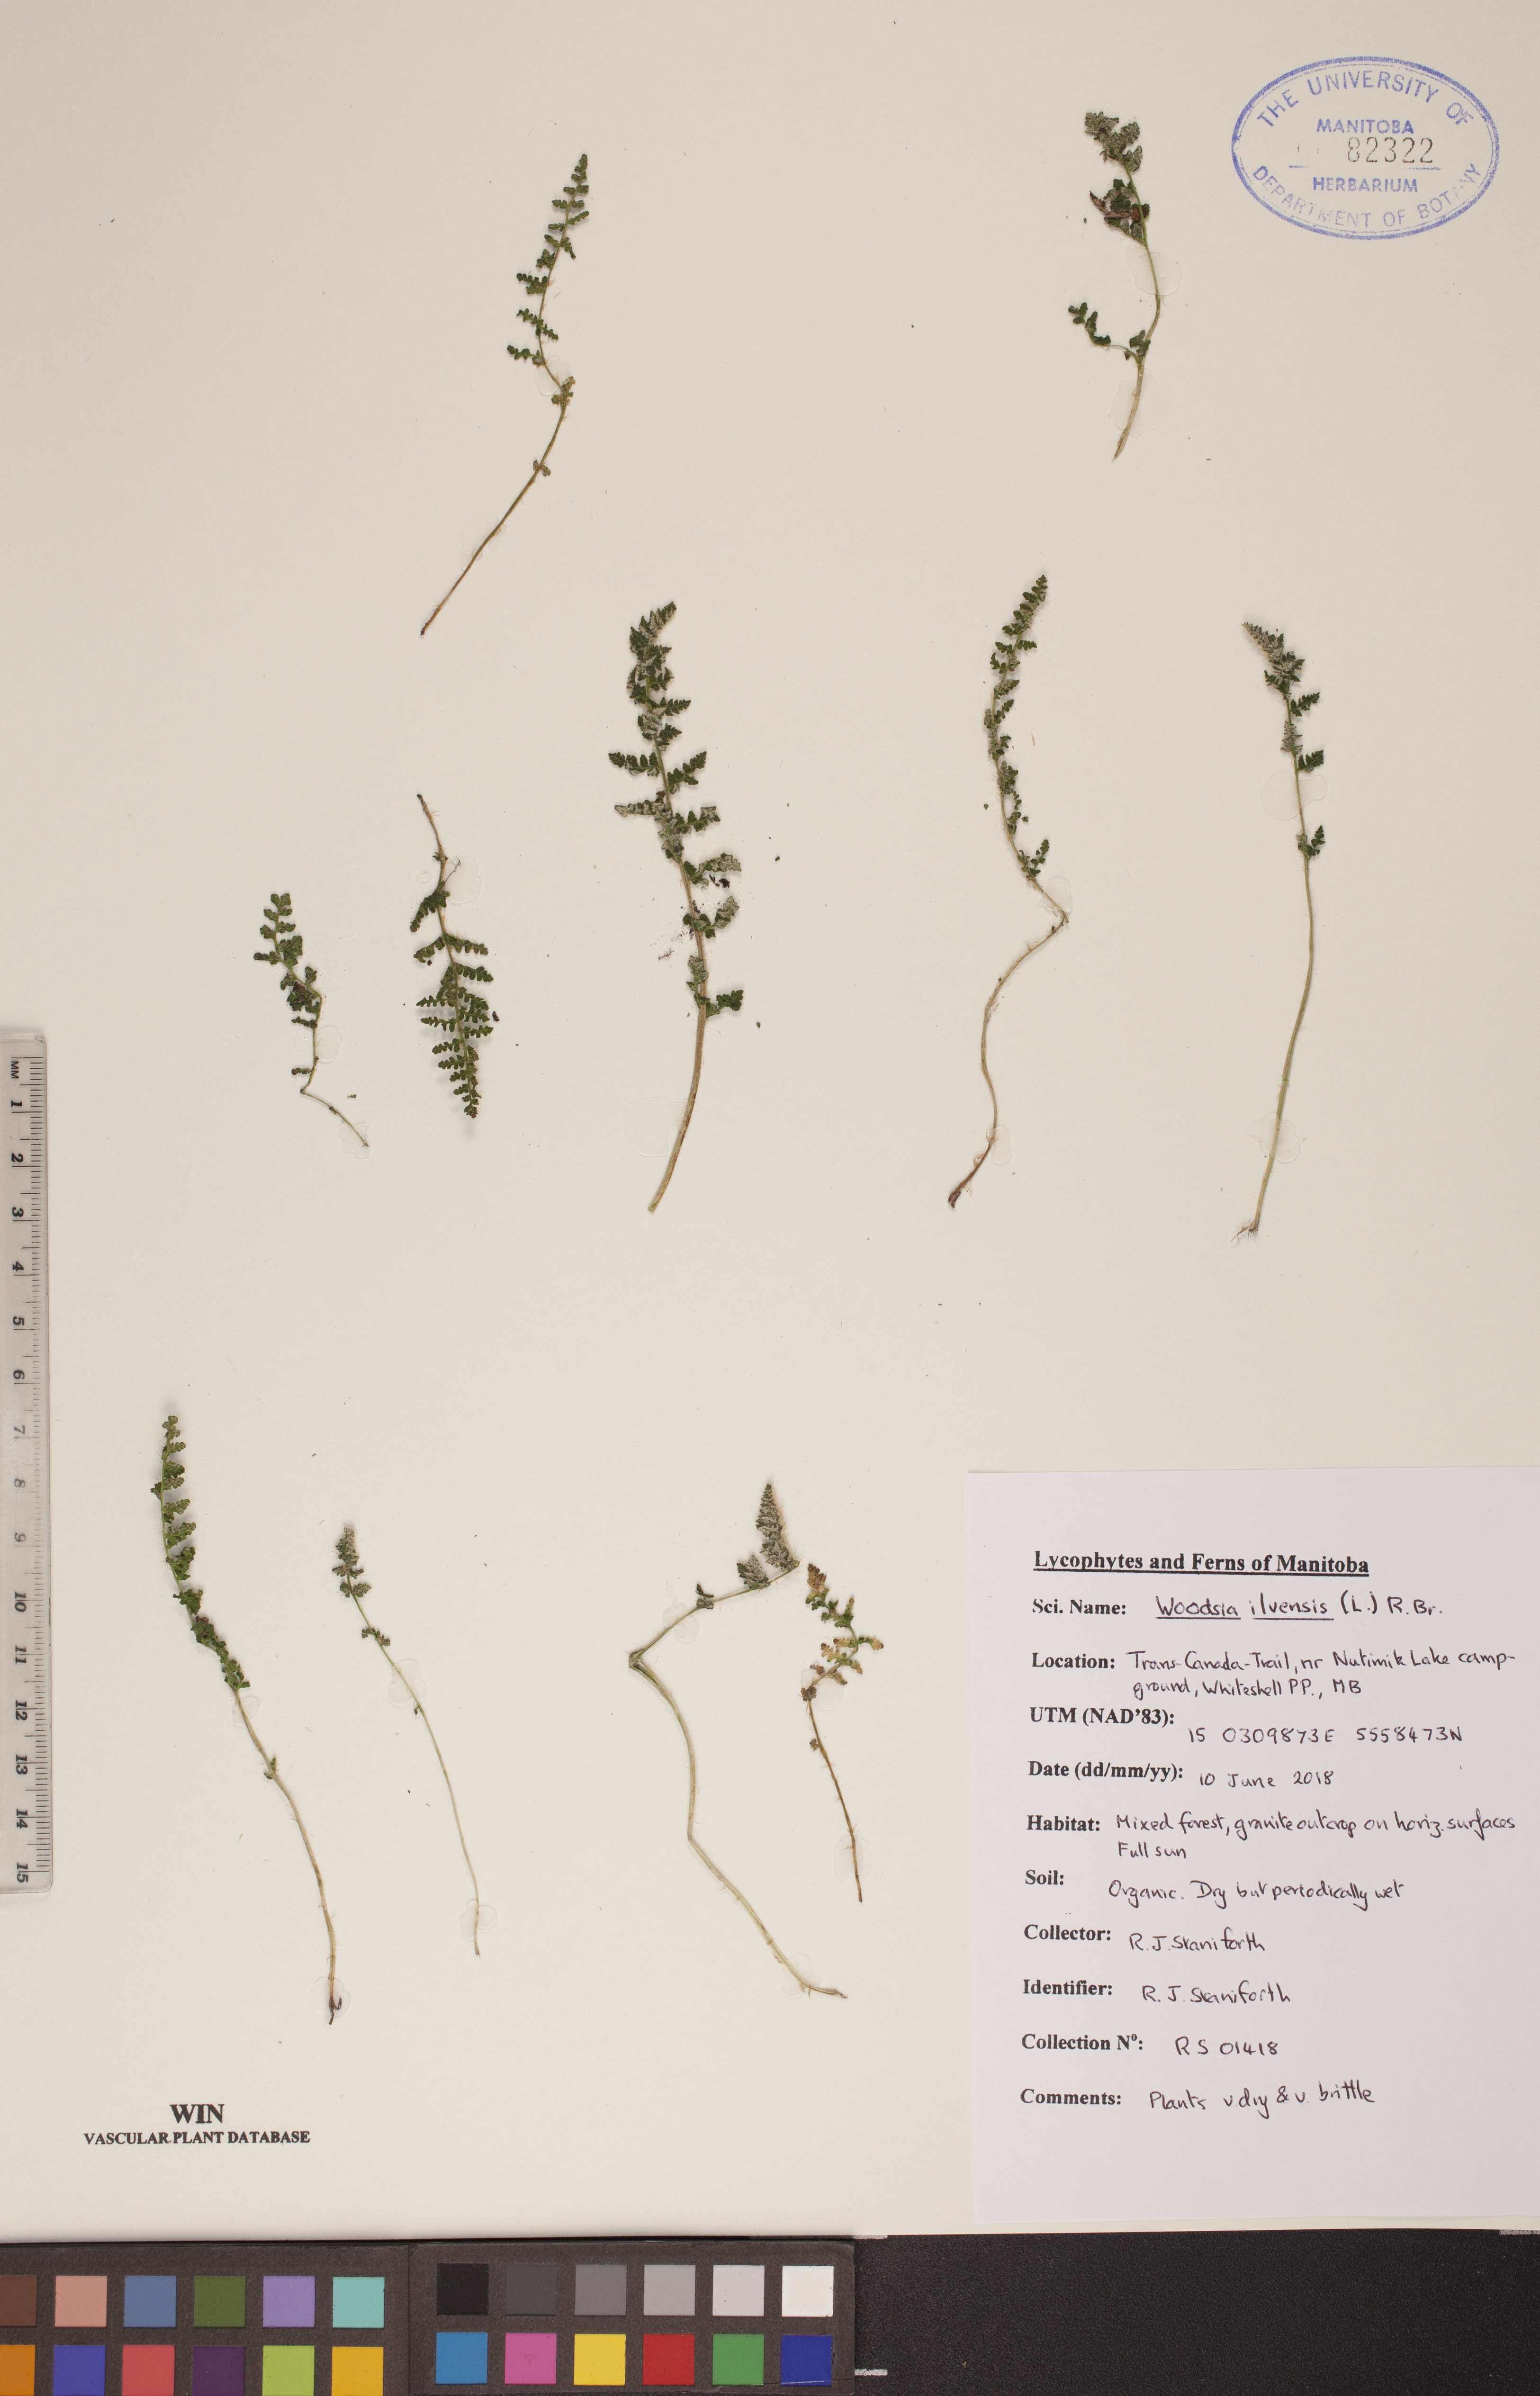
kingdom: Plantae
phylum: Tracheophyta
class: Polypodiopsida
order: Polypodiales
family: Woodsiaceae
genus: Woodsia
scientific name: Woodsia ilvensis
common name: Fragrant woodsia
